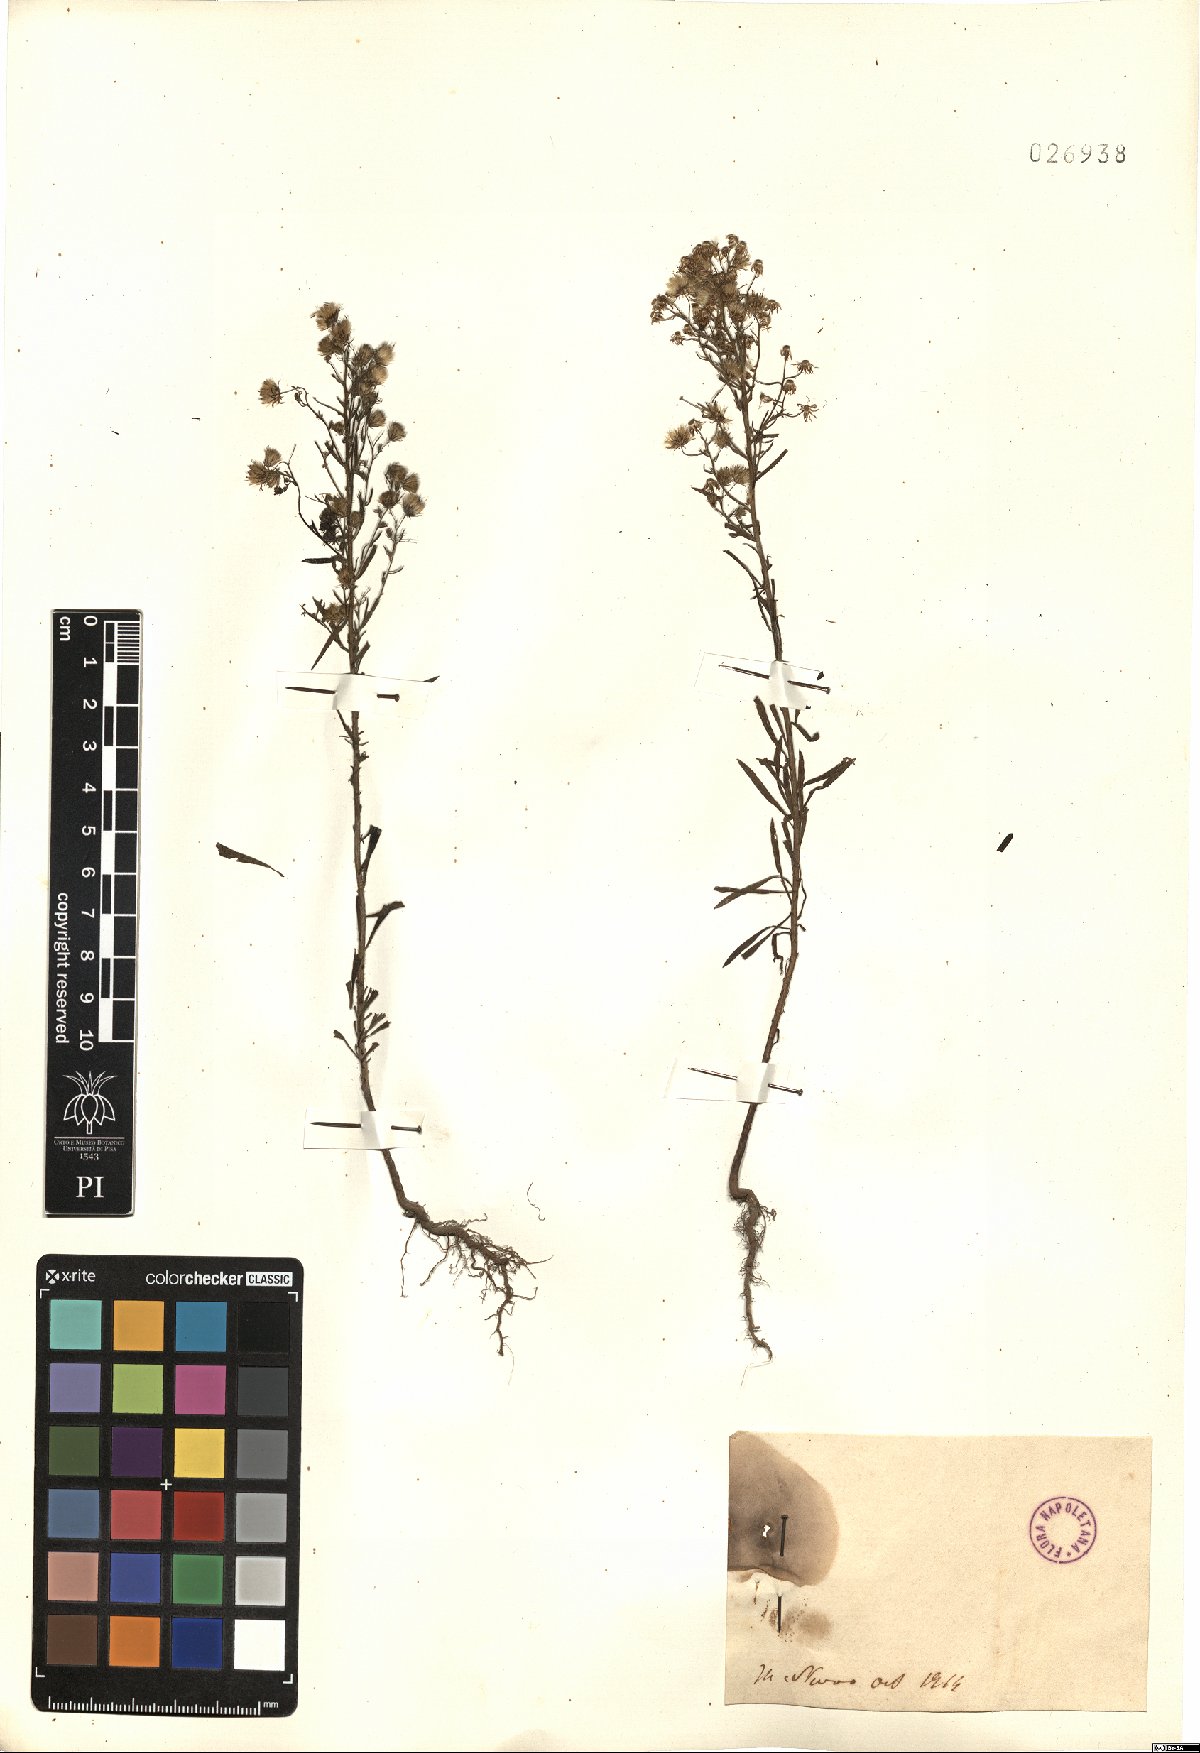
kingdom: Plantae
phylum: Tracheophyta
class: Magnoliopsida
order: Asterales
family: Asteraceae
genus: Erigeron
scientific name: Erigeron
